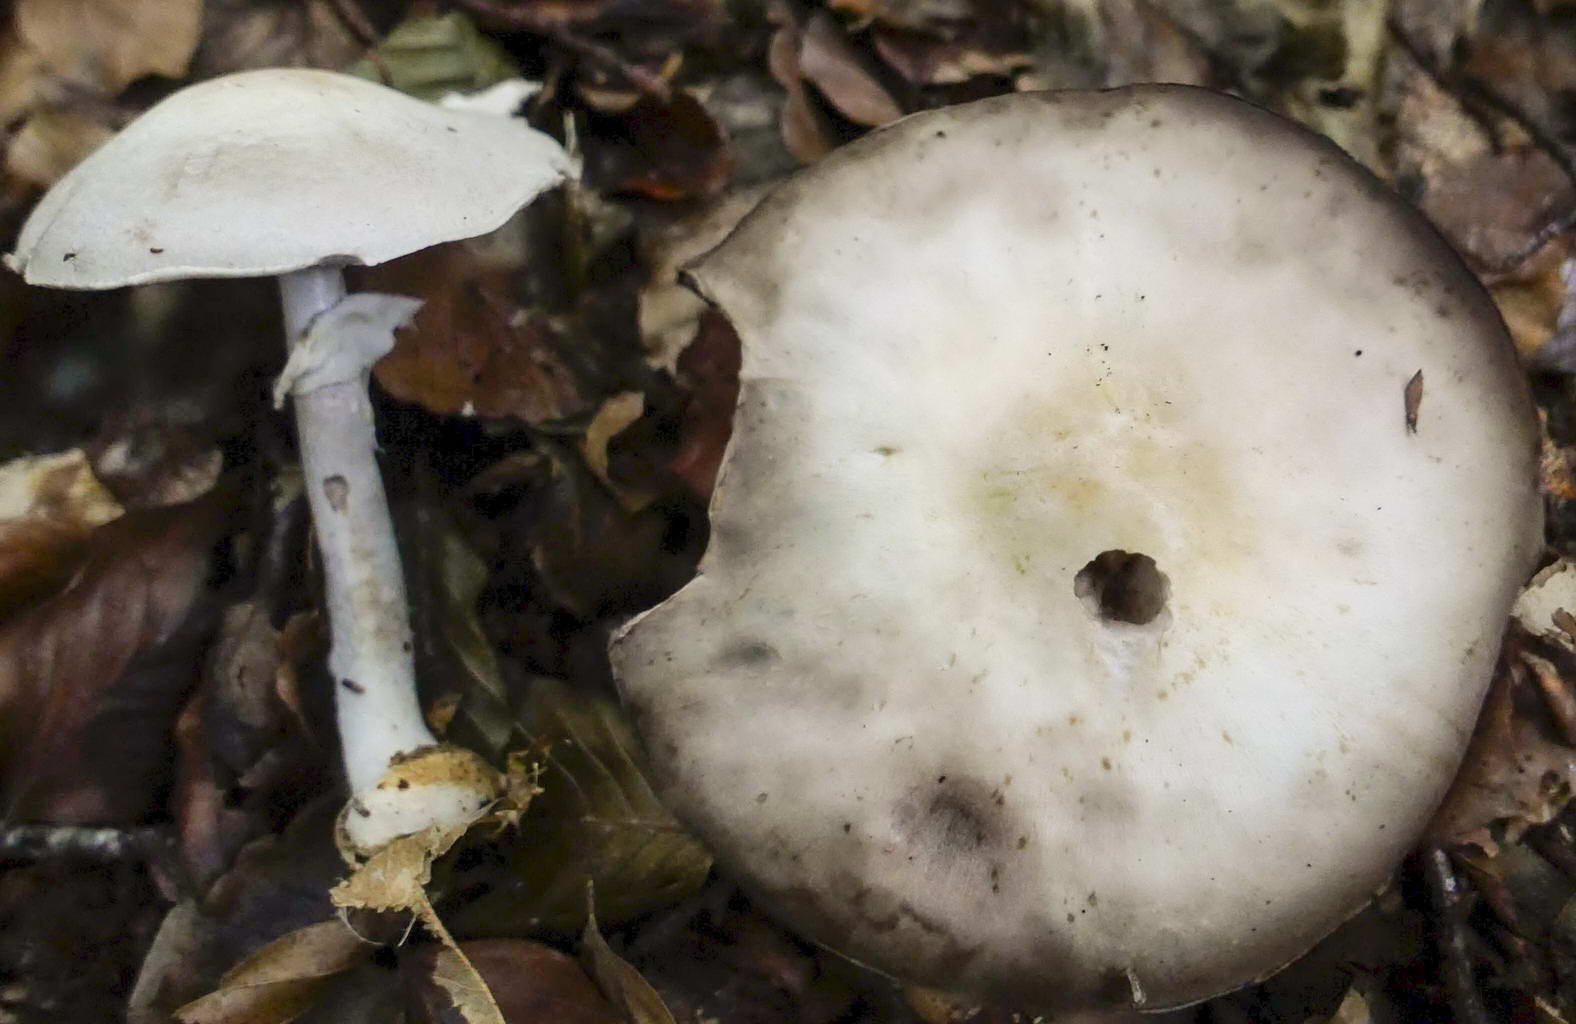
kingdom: Fungi
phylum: Basidiomycota
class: Agaricomycetes
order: Agaricales
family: Agaricaceae
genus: Agaricus
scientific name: Agaricus sylvicola
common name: skiveknoldet champignon
